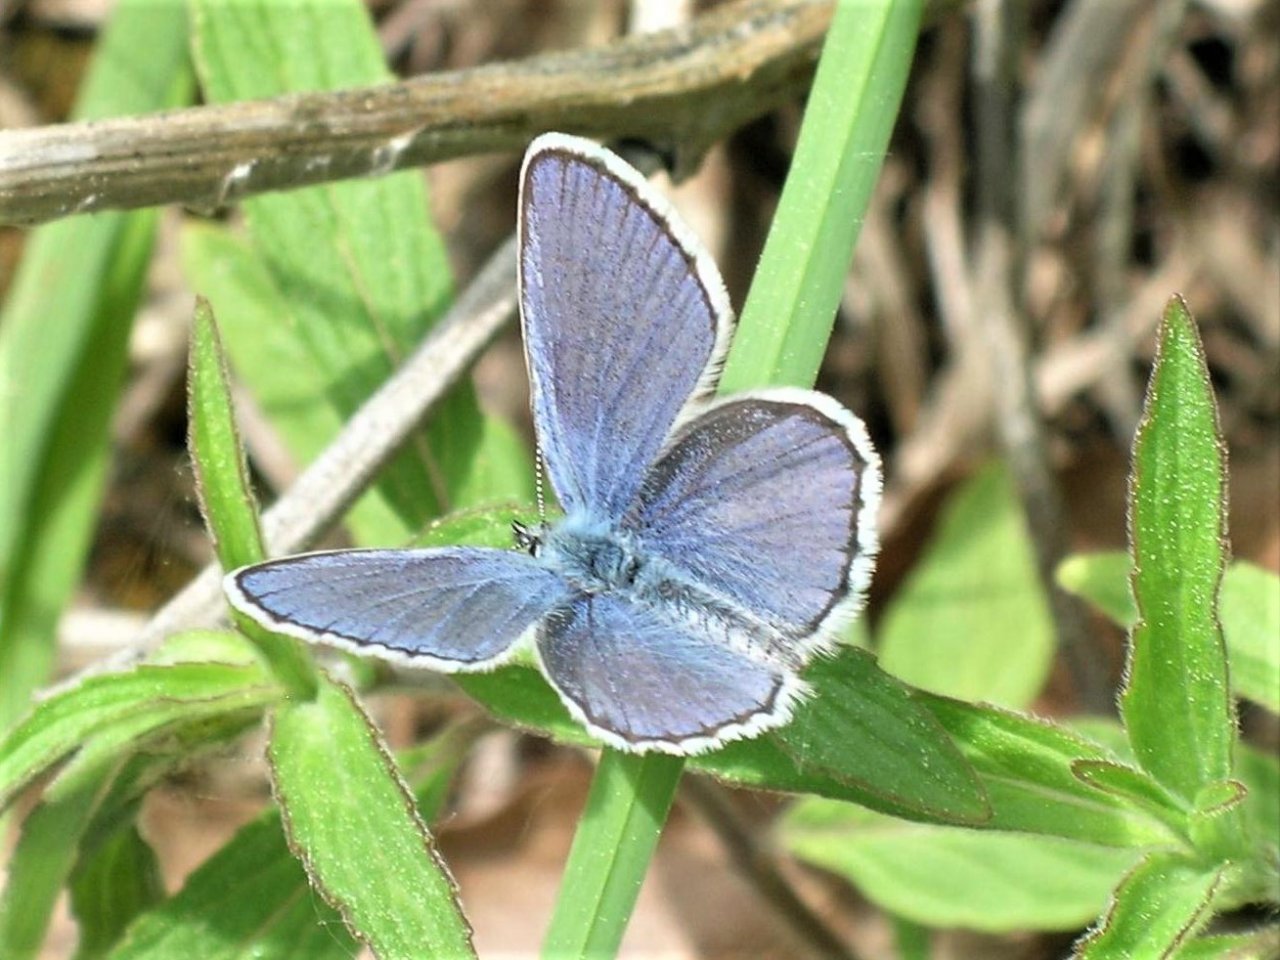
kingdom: Animalia
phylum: Arthropoda
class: Insecta
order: Lepidoptera
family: Lycaenidae
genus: Plebejus
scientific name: Plebejus samuelis
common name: Karner Blue
